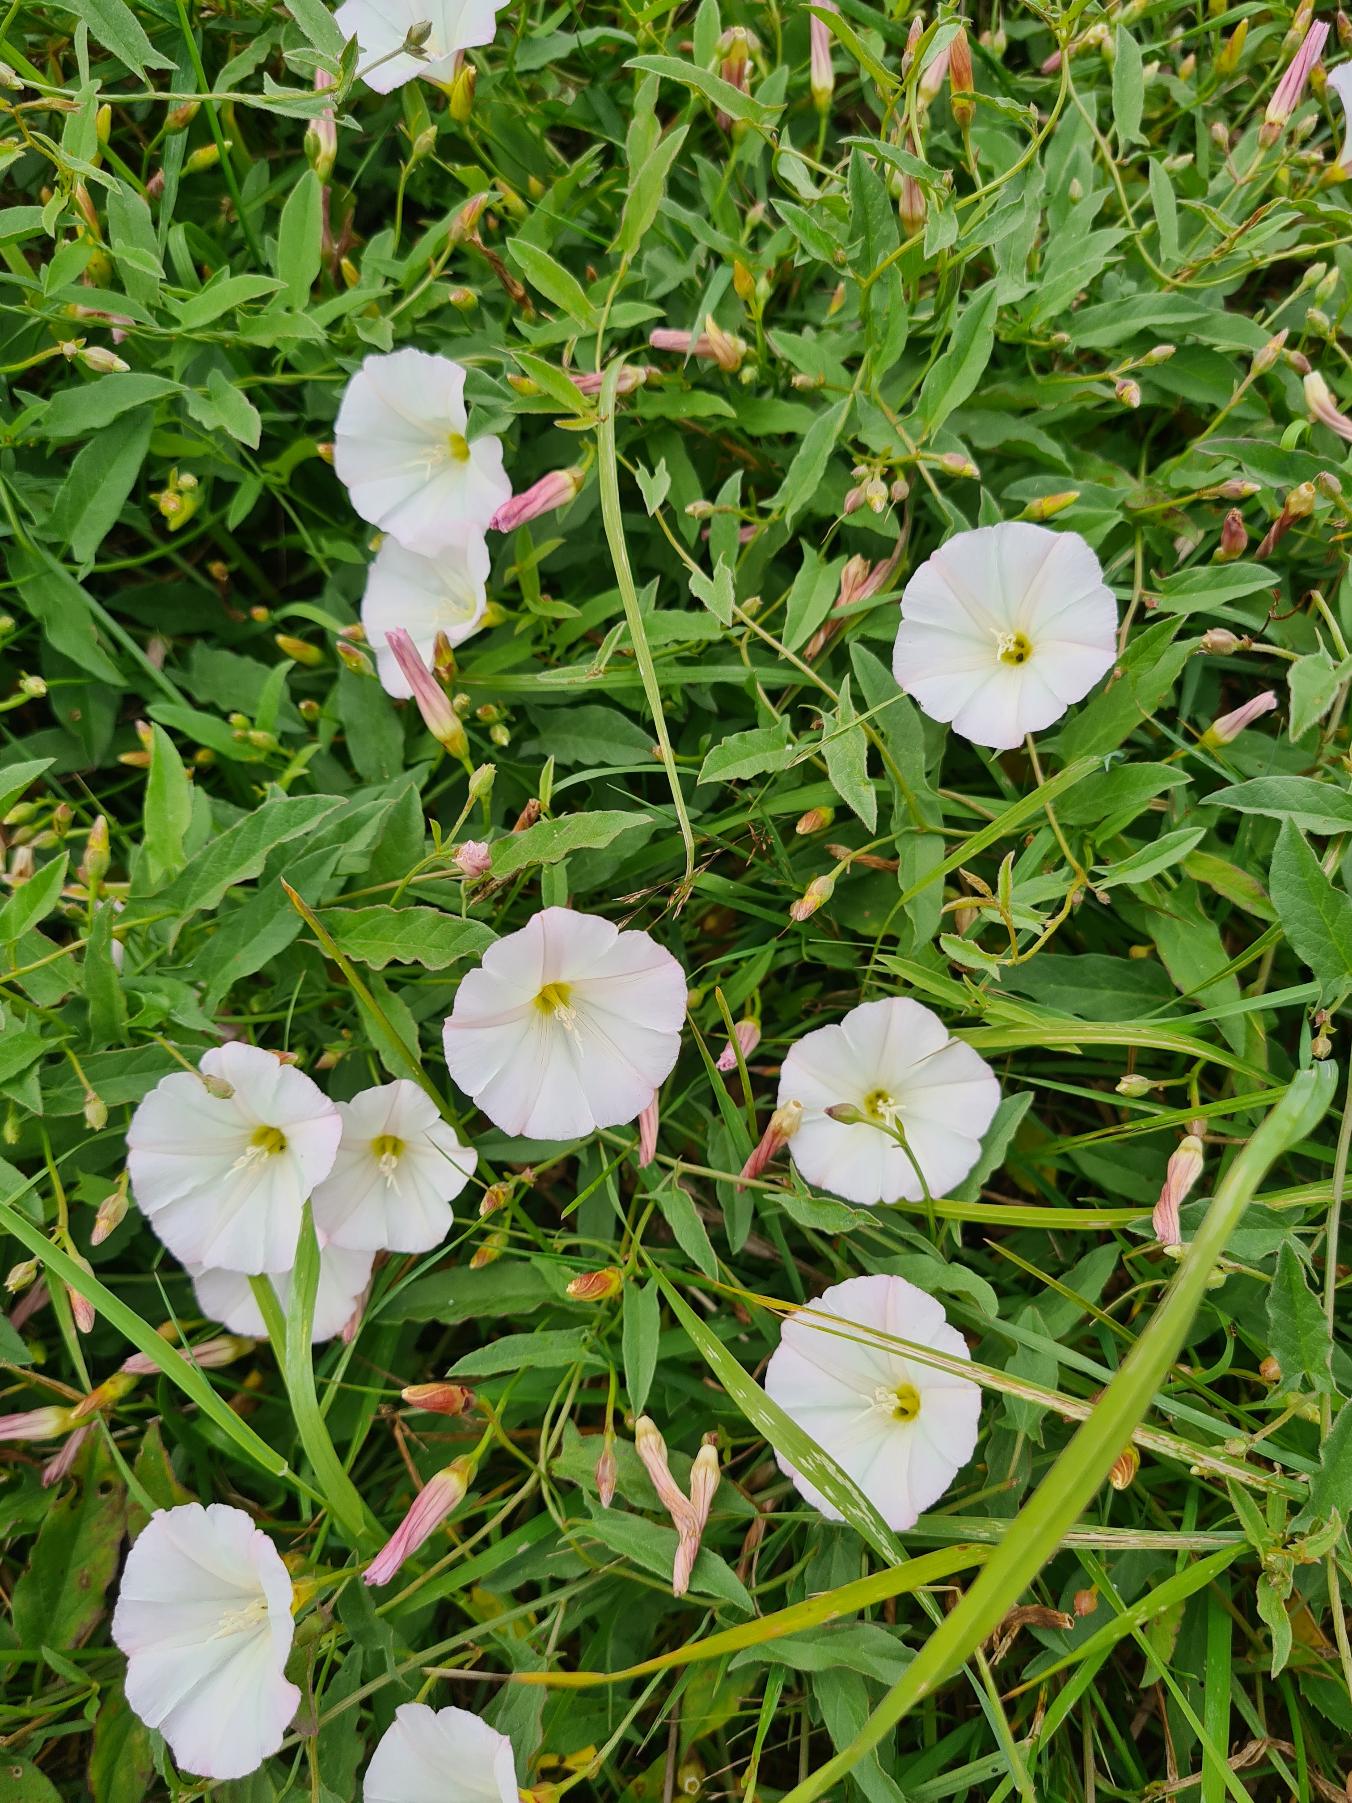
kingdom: Plantae
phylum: Tracheophyta
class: Magnoliopsida
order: Solanales
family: Convolvulaceae
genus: Convolvulus
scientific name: Convolvulus arvensis
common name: Ager-snerle
